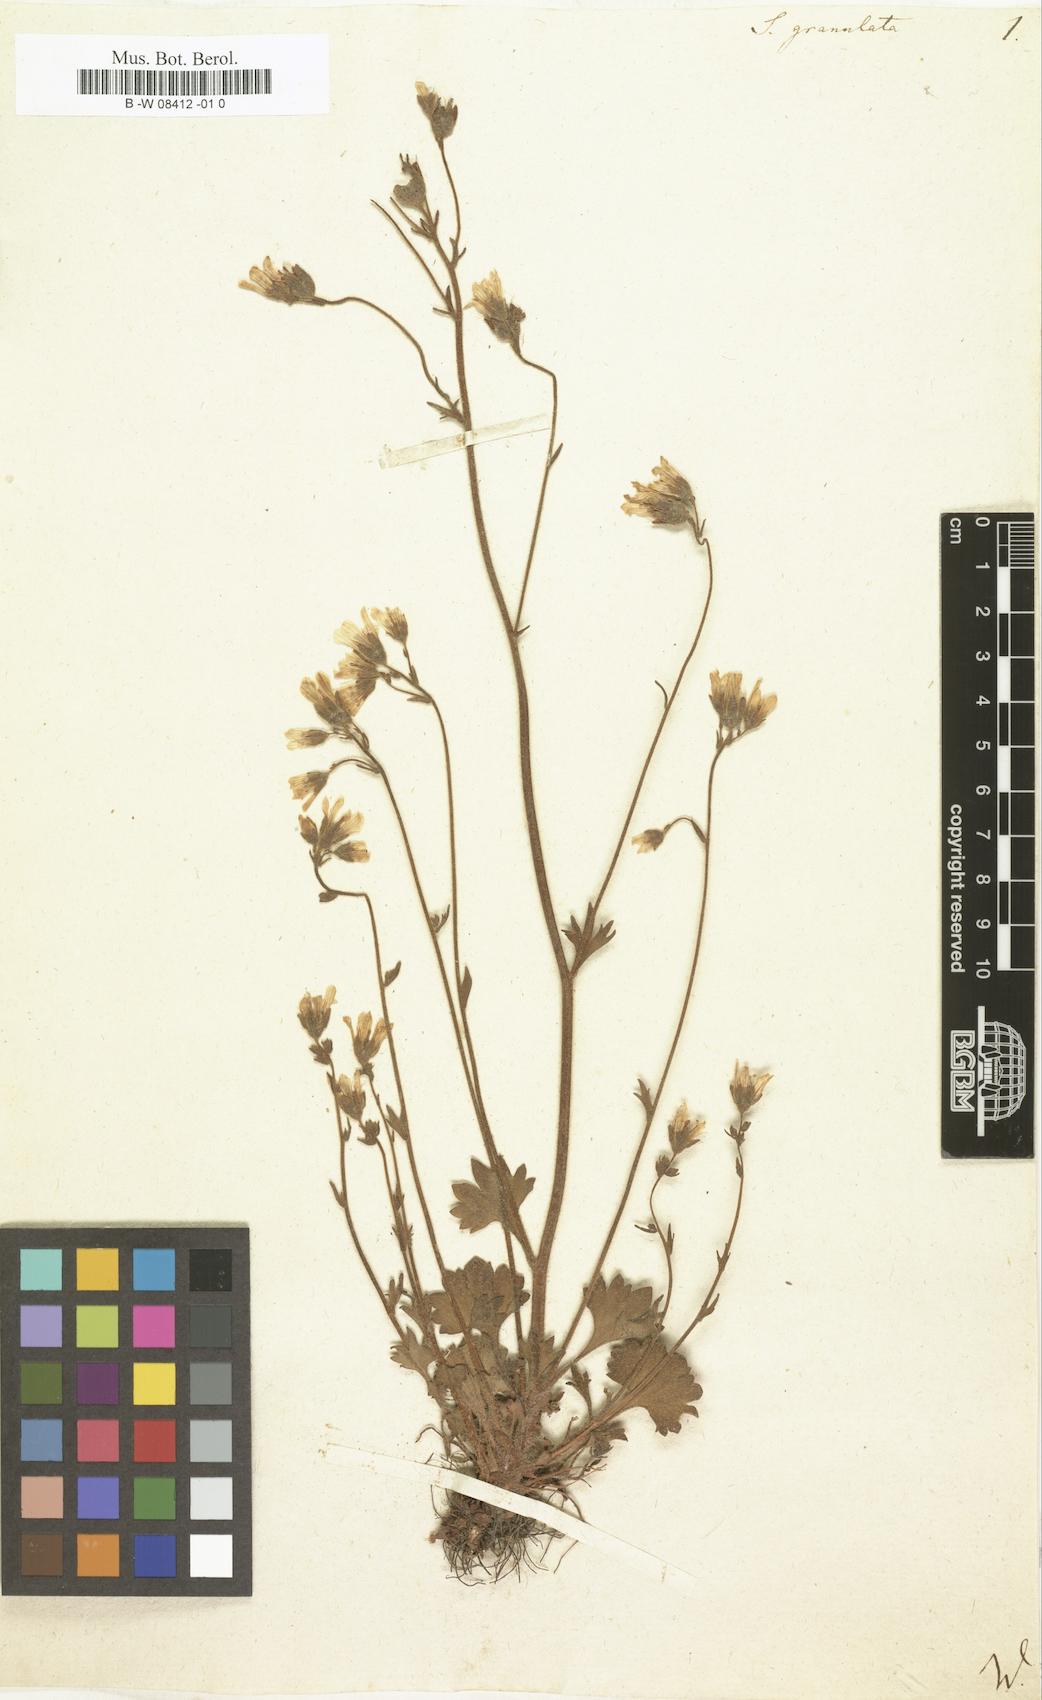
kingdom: Plantae
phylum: Tracheophyta
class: Magnoliopsida
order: Saxifragales
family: Saxifragaceae
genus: Saxifraga
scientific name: Saxifraga granulata
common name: Meadow saxifrage
